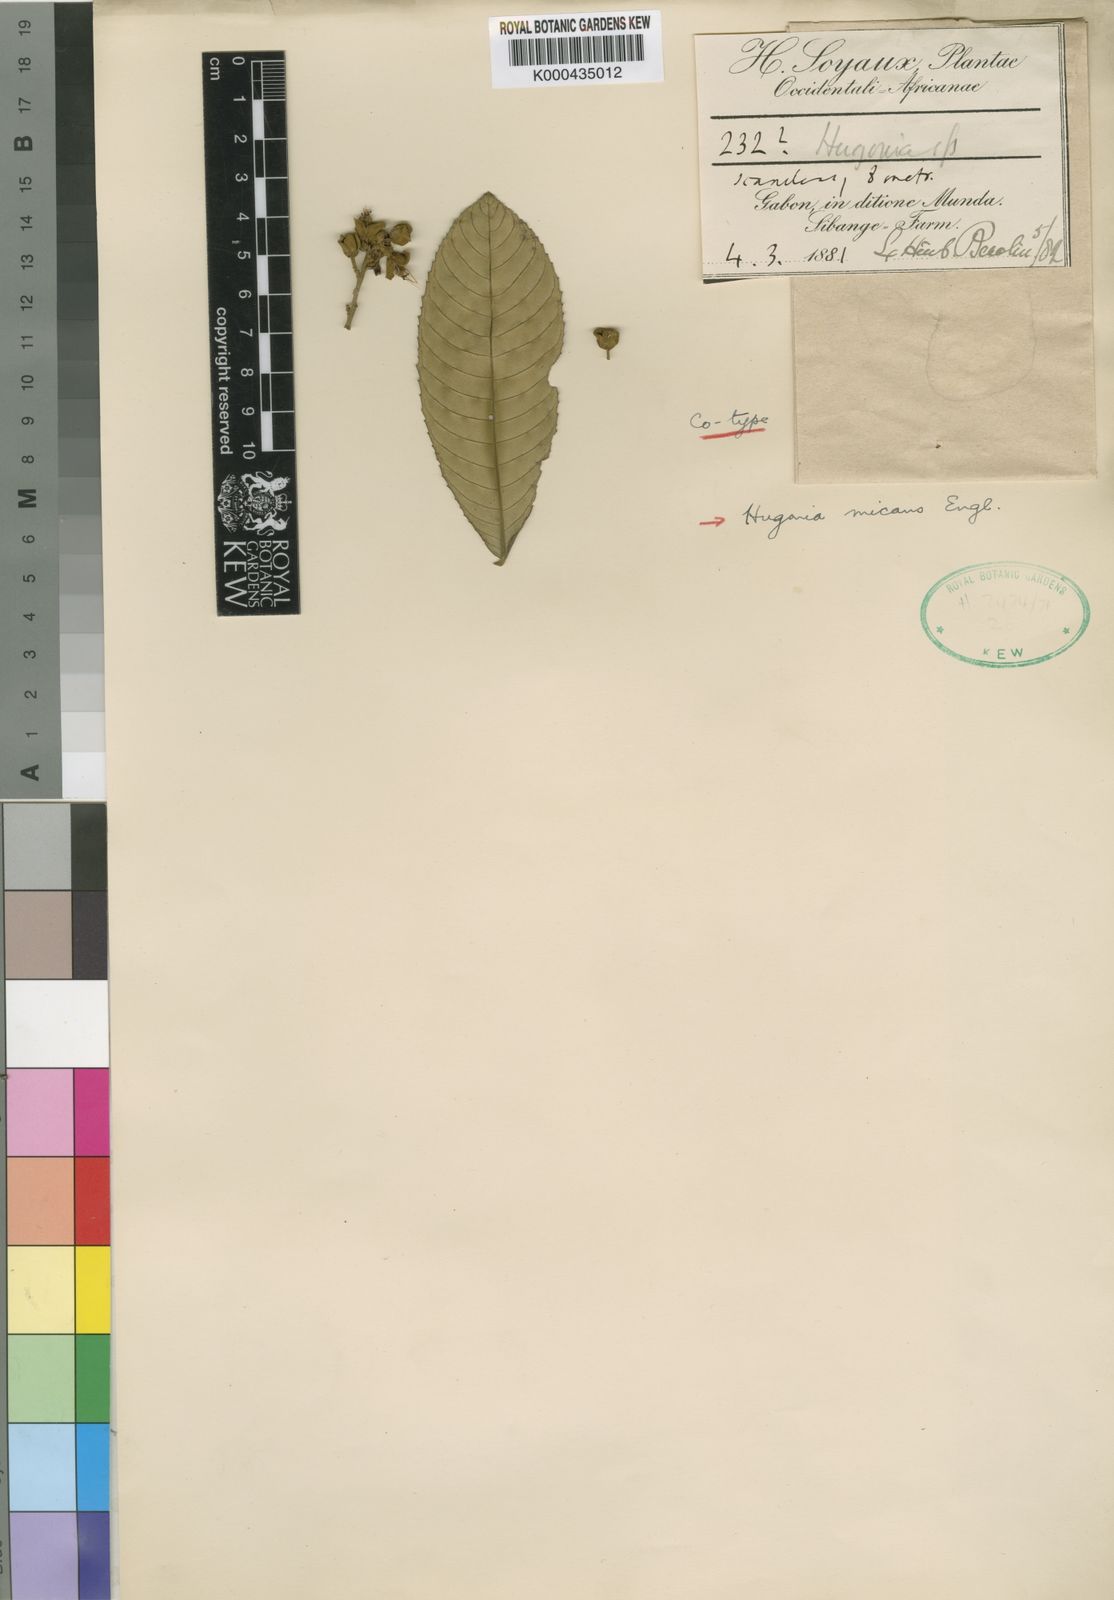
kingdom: Plantae
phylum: Tracheophyta
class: Magnoliopsida
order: Malpighiales
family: Linaceae
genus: Hugonia
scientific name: Hugonia micans
